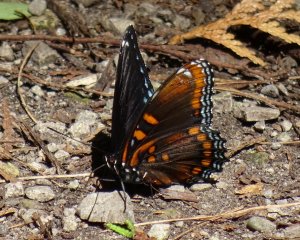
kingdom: Animalia
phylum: Arthropoda
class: Insecta
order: Lepidoptera
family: Nymphalidae
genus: Limenitis
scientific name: Limenitis astyanax
